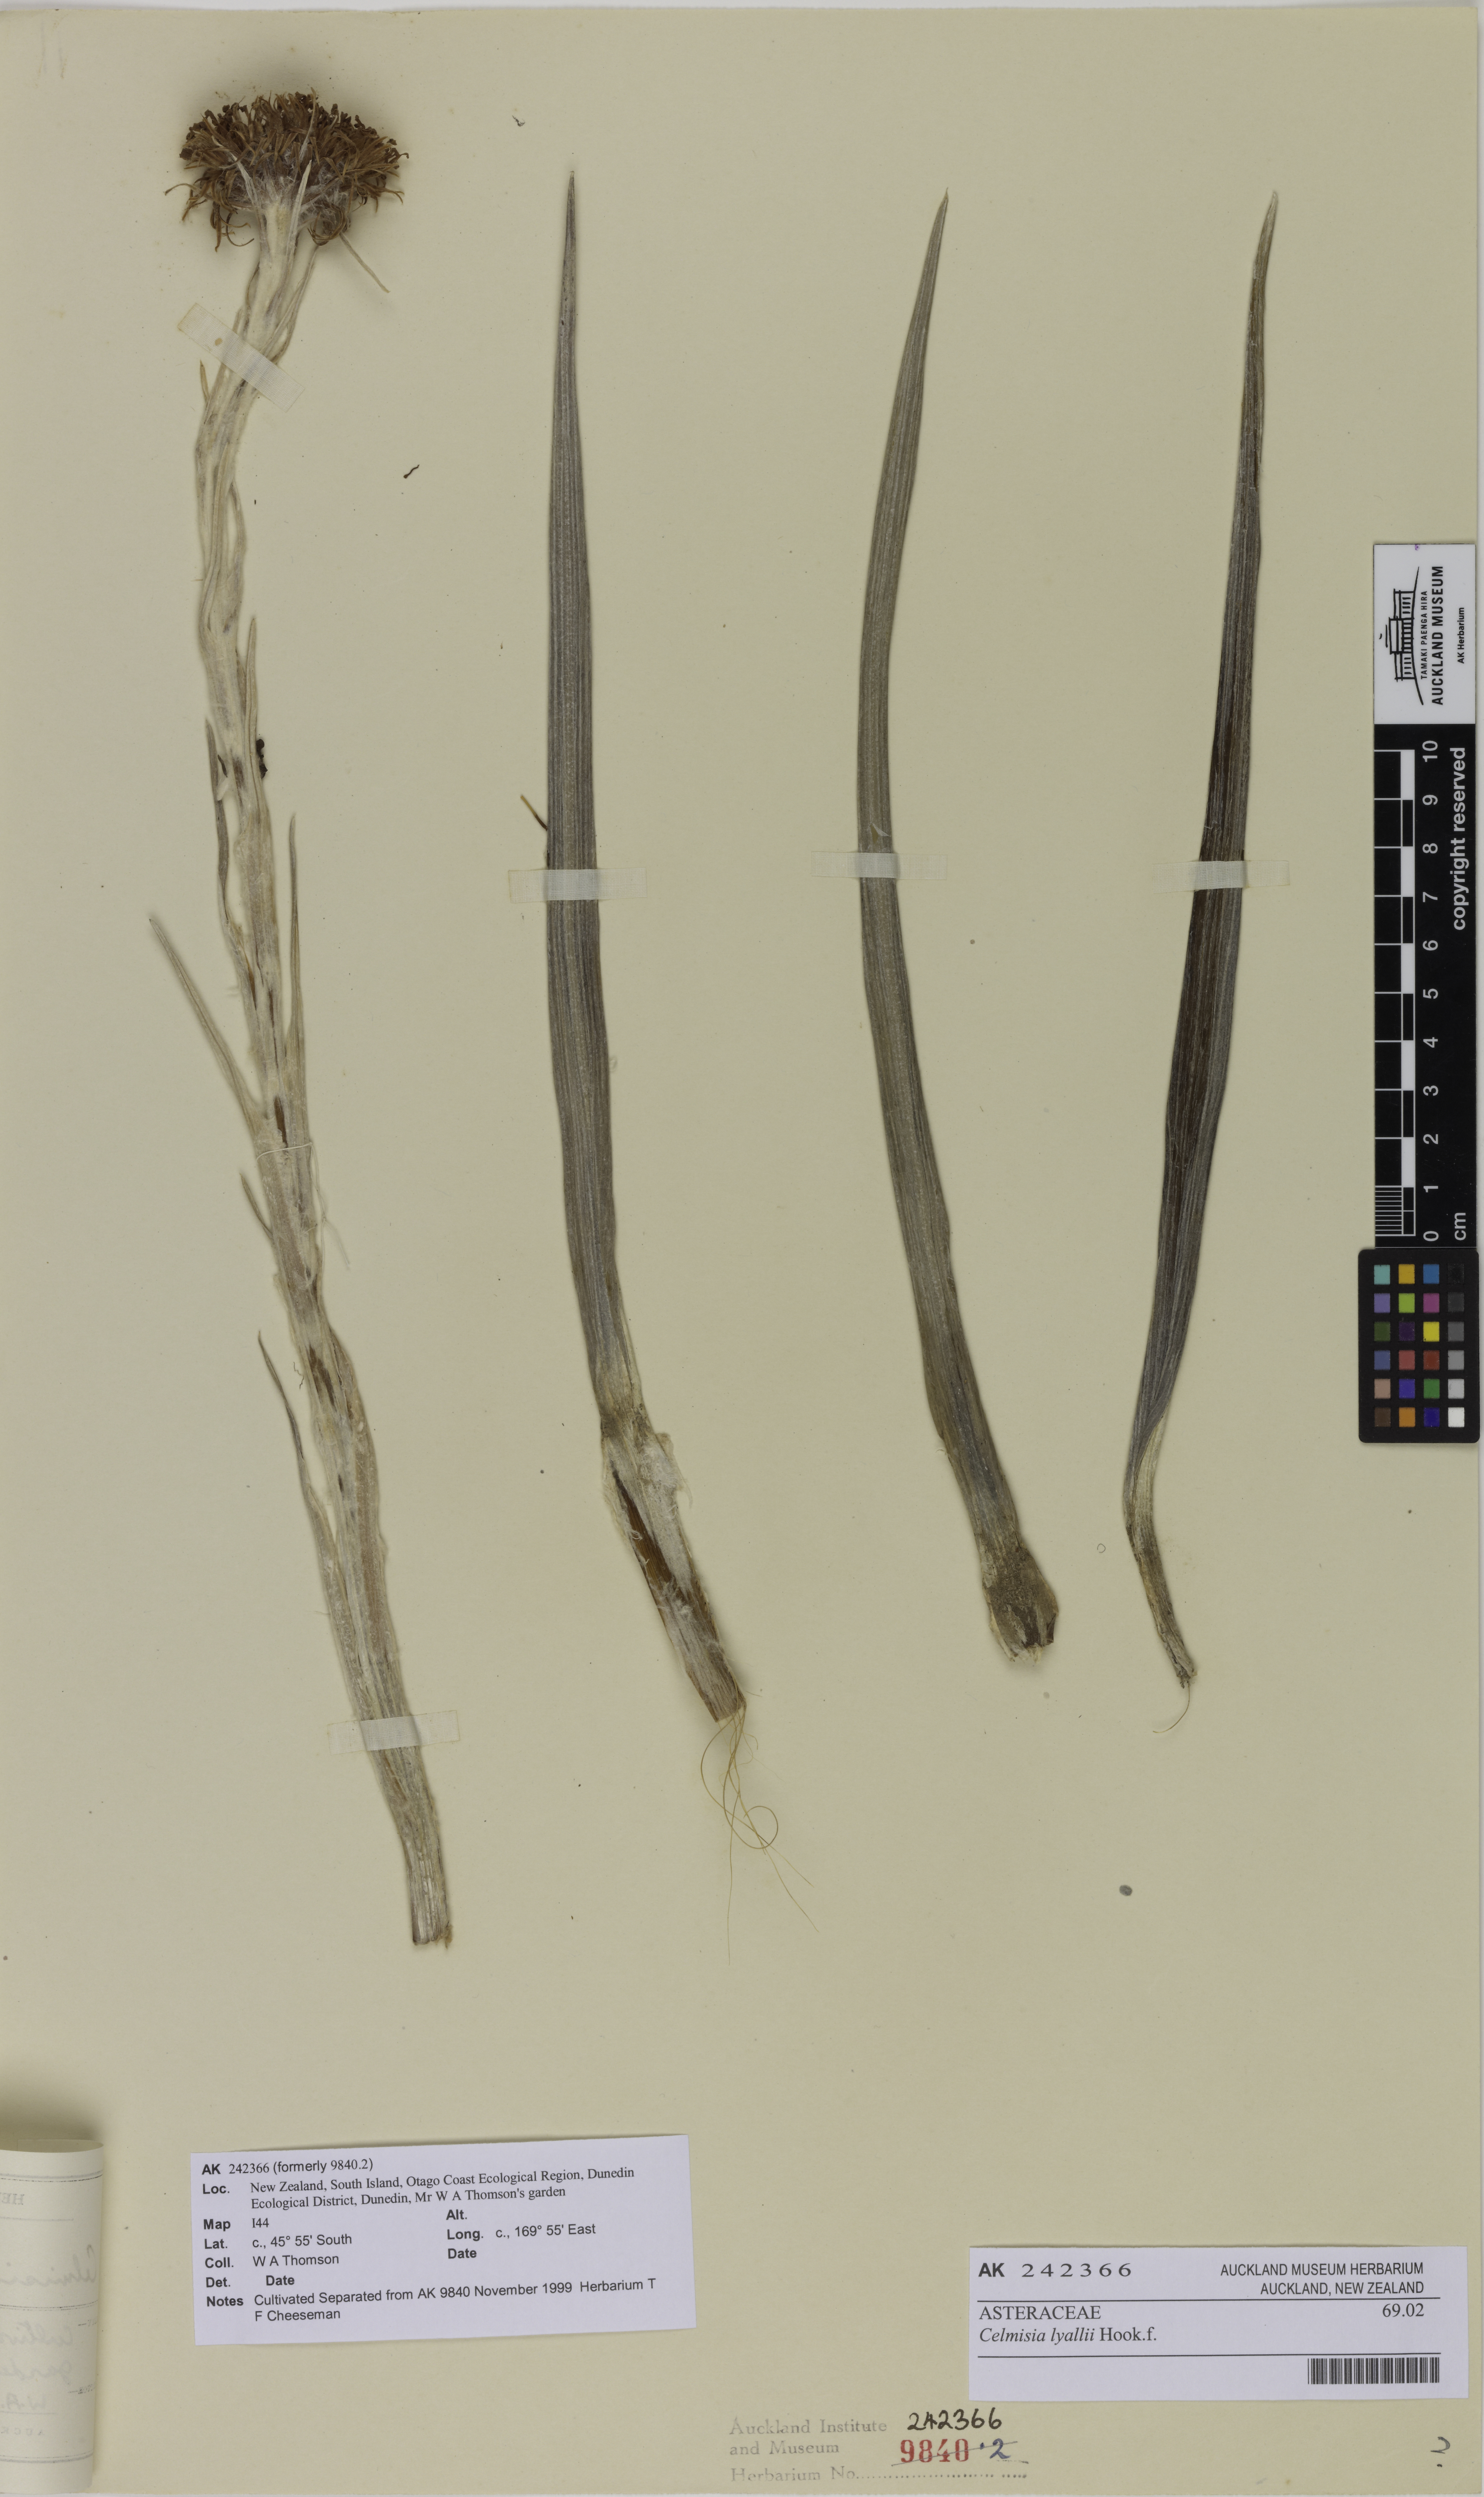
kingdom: Plantae
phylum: Tracheophyta
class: Magnoliopsida
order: Asterales
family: Asteraceae
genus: Celmisia
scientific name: Celmisia lyallii
